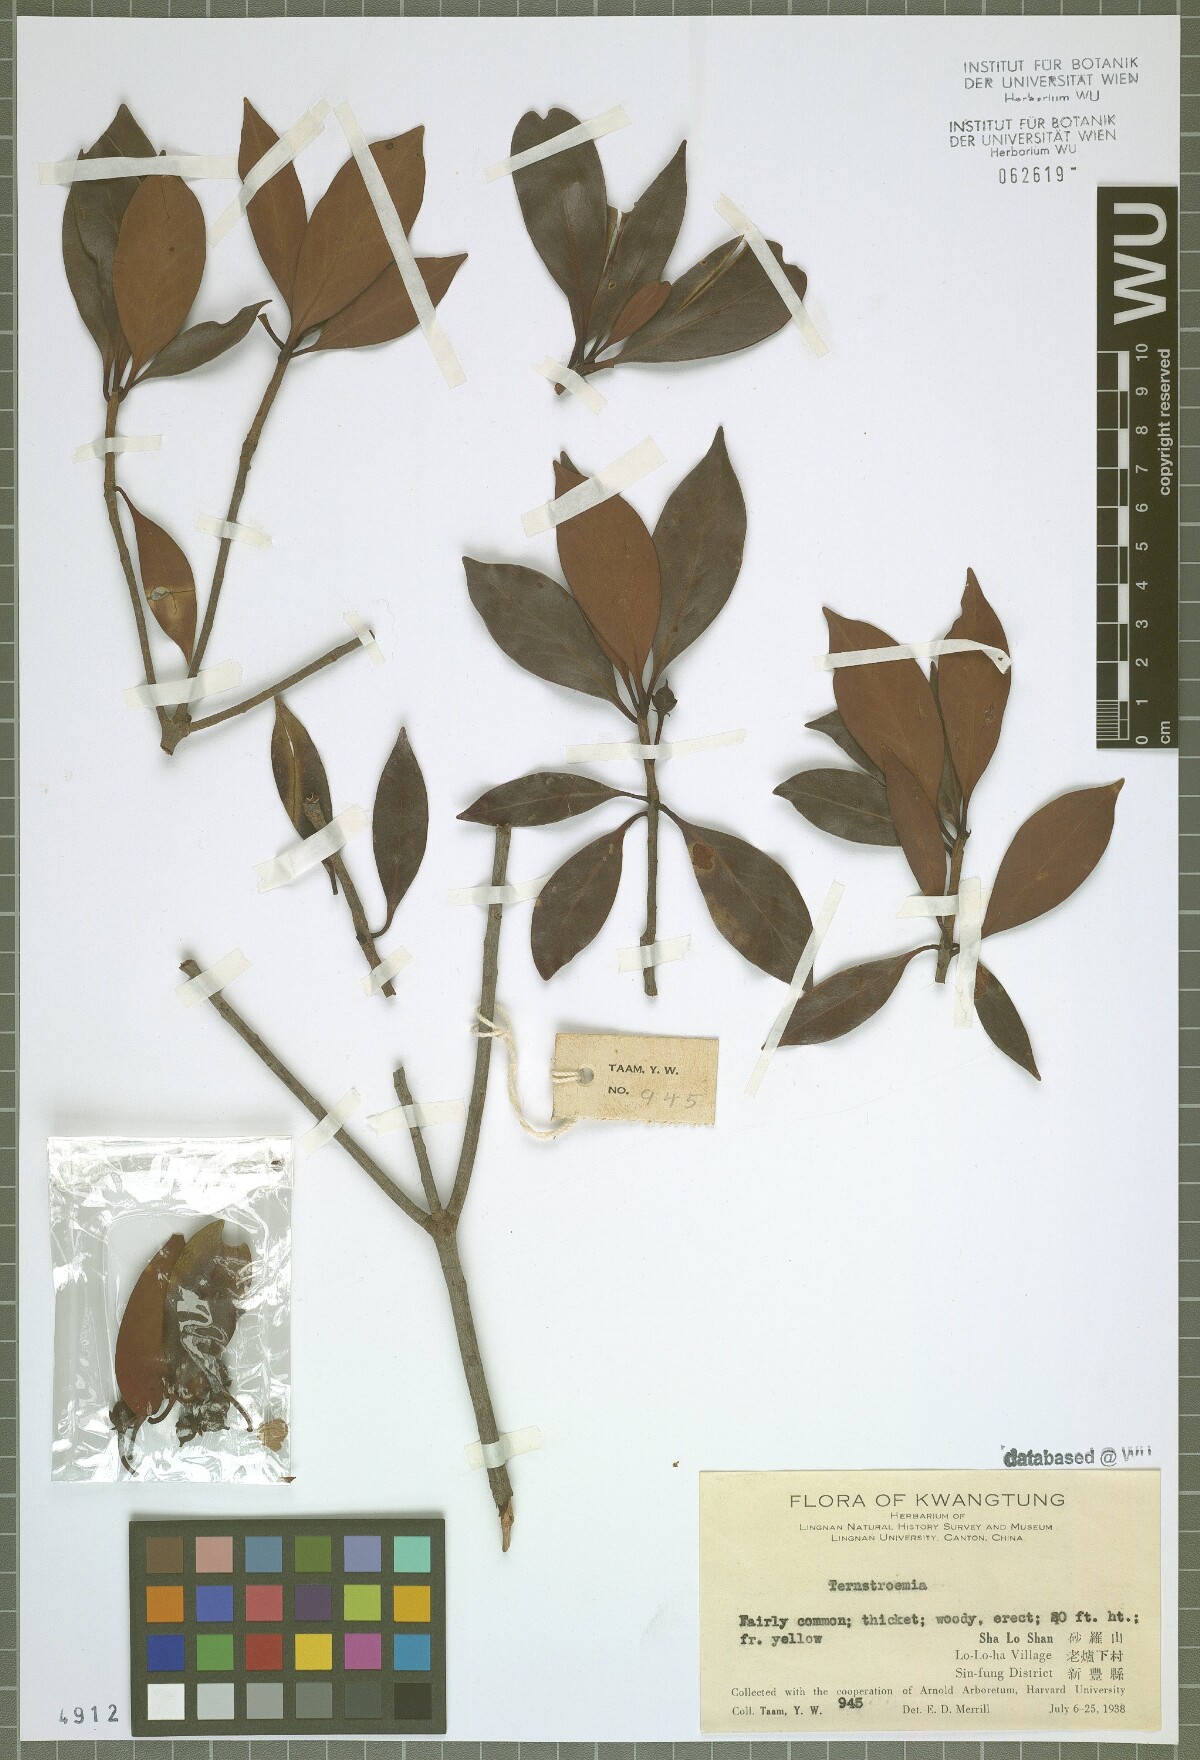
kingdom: Plantae
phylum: Tracheophyta
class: Magnoliopsida
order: Ericales
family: Pentaphylacaceae
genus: Ternstroemia
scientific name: Ternstroemia
